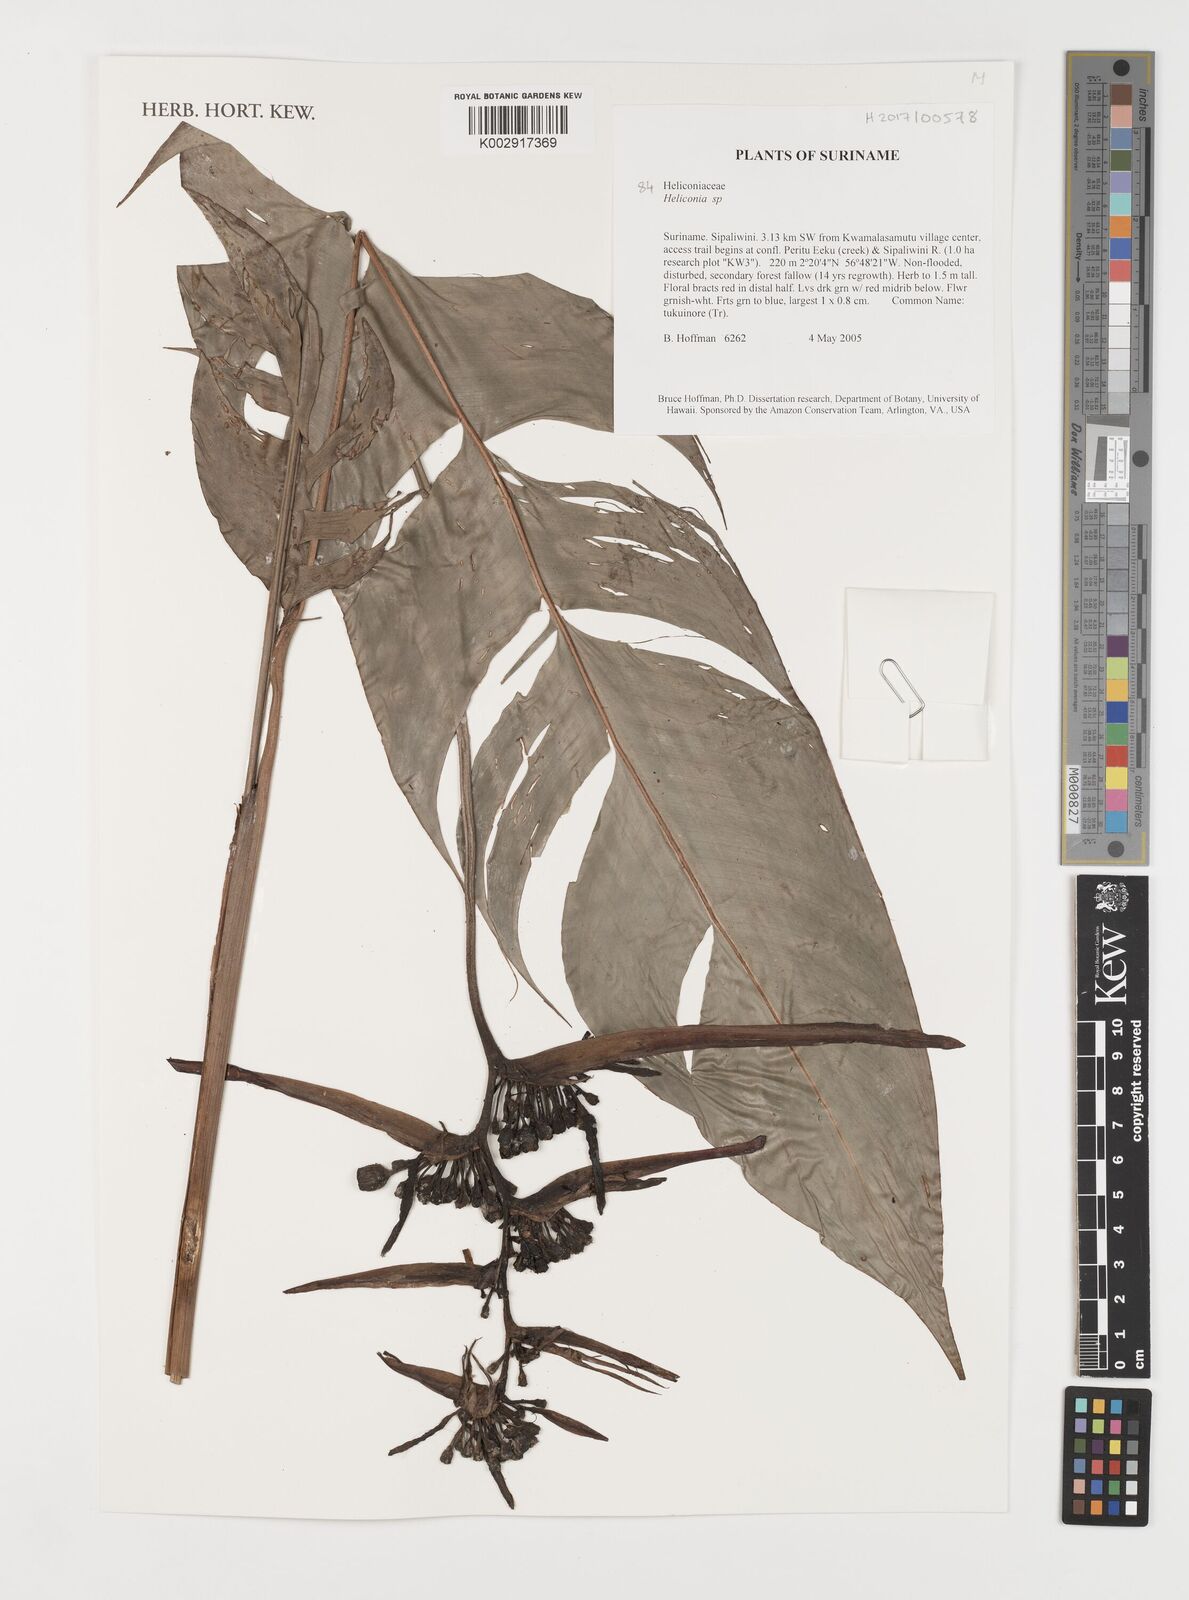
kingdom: Plantae
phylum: Tracheophyta
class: Liliopsida
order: Zingiberales
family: Heliconiaceae
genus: Heliconia
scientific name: Heliconia
